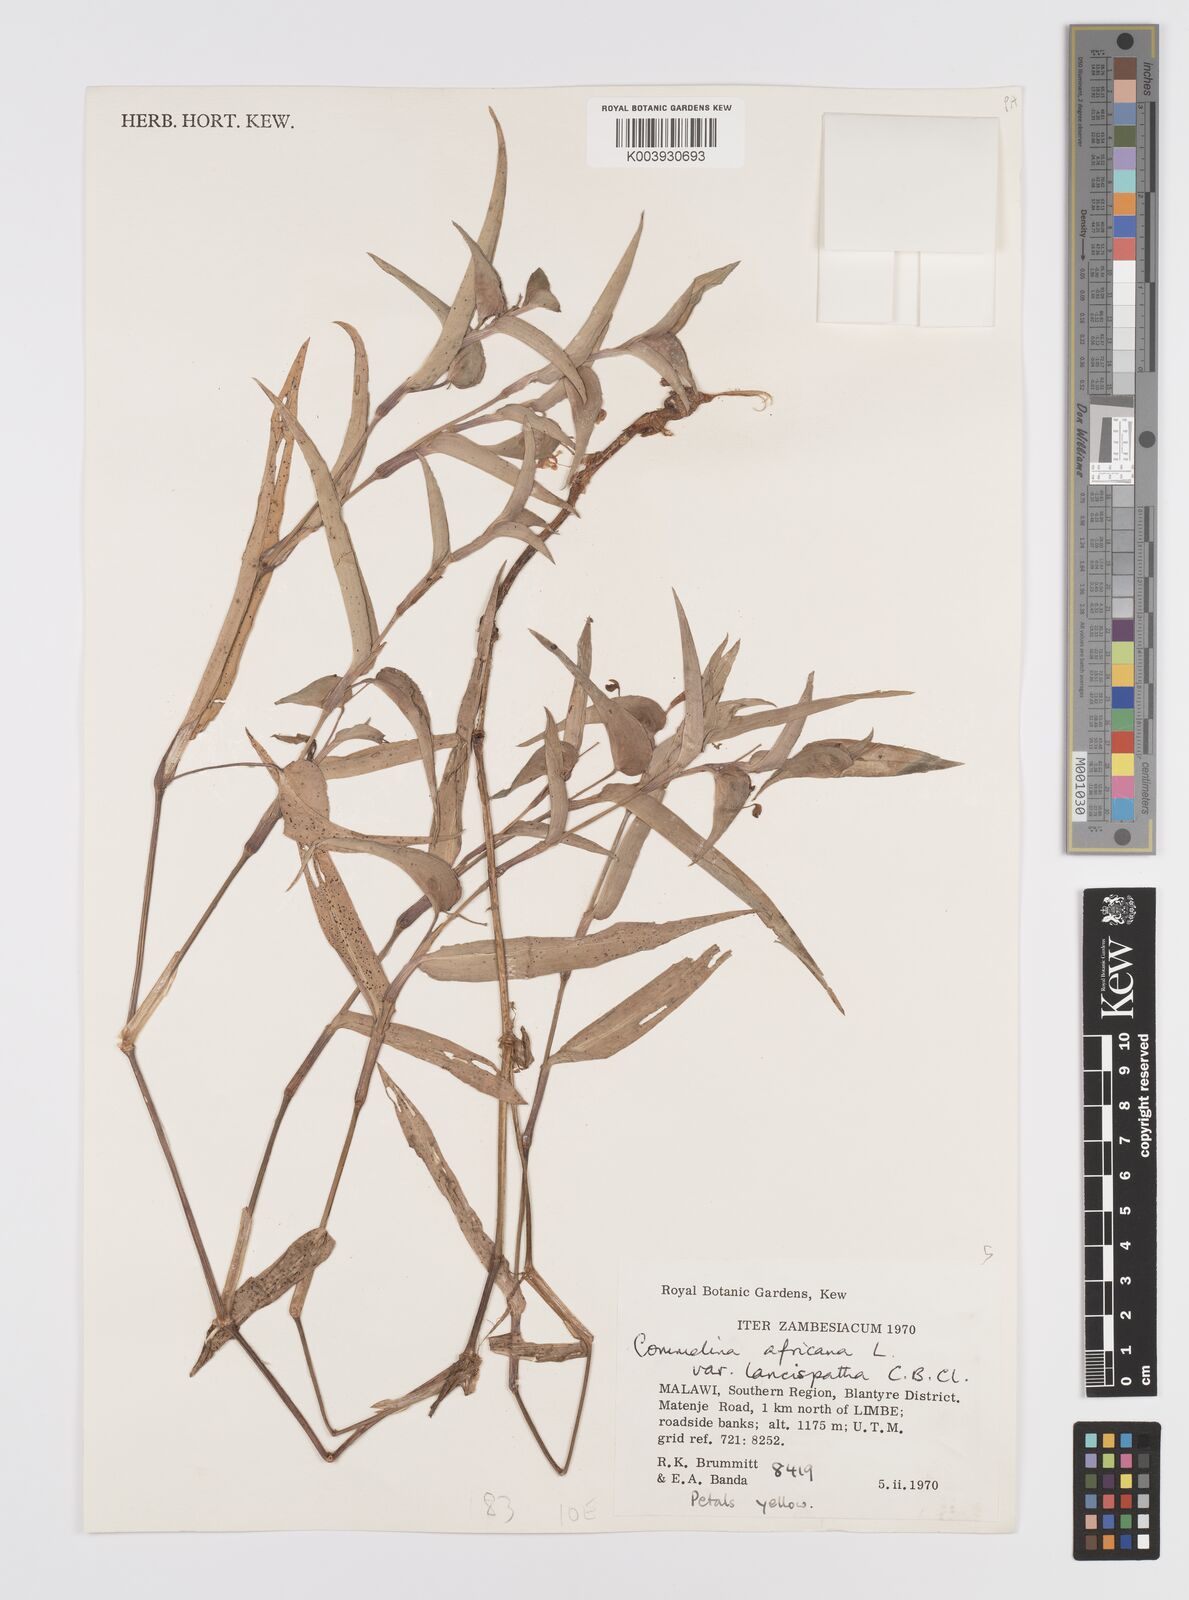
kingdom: Plantae
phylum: Tracheophyta
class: Liliopsida
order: Commelinales
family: Commelinaceae
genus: Commelina
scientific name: Commelina africana
